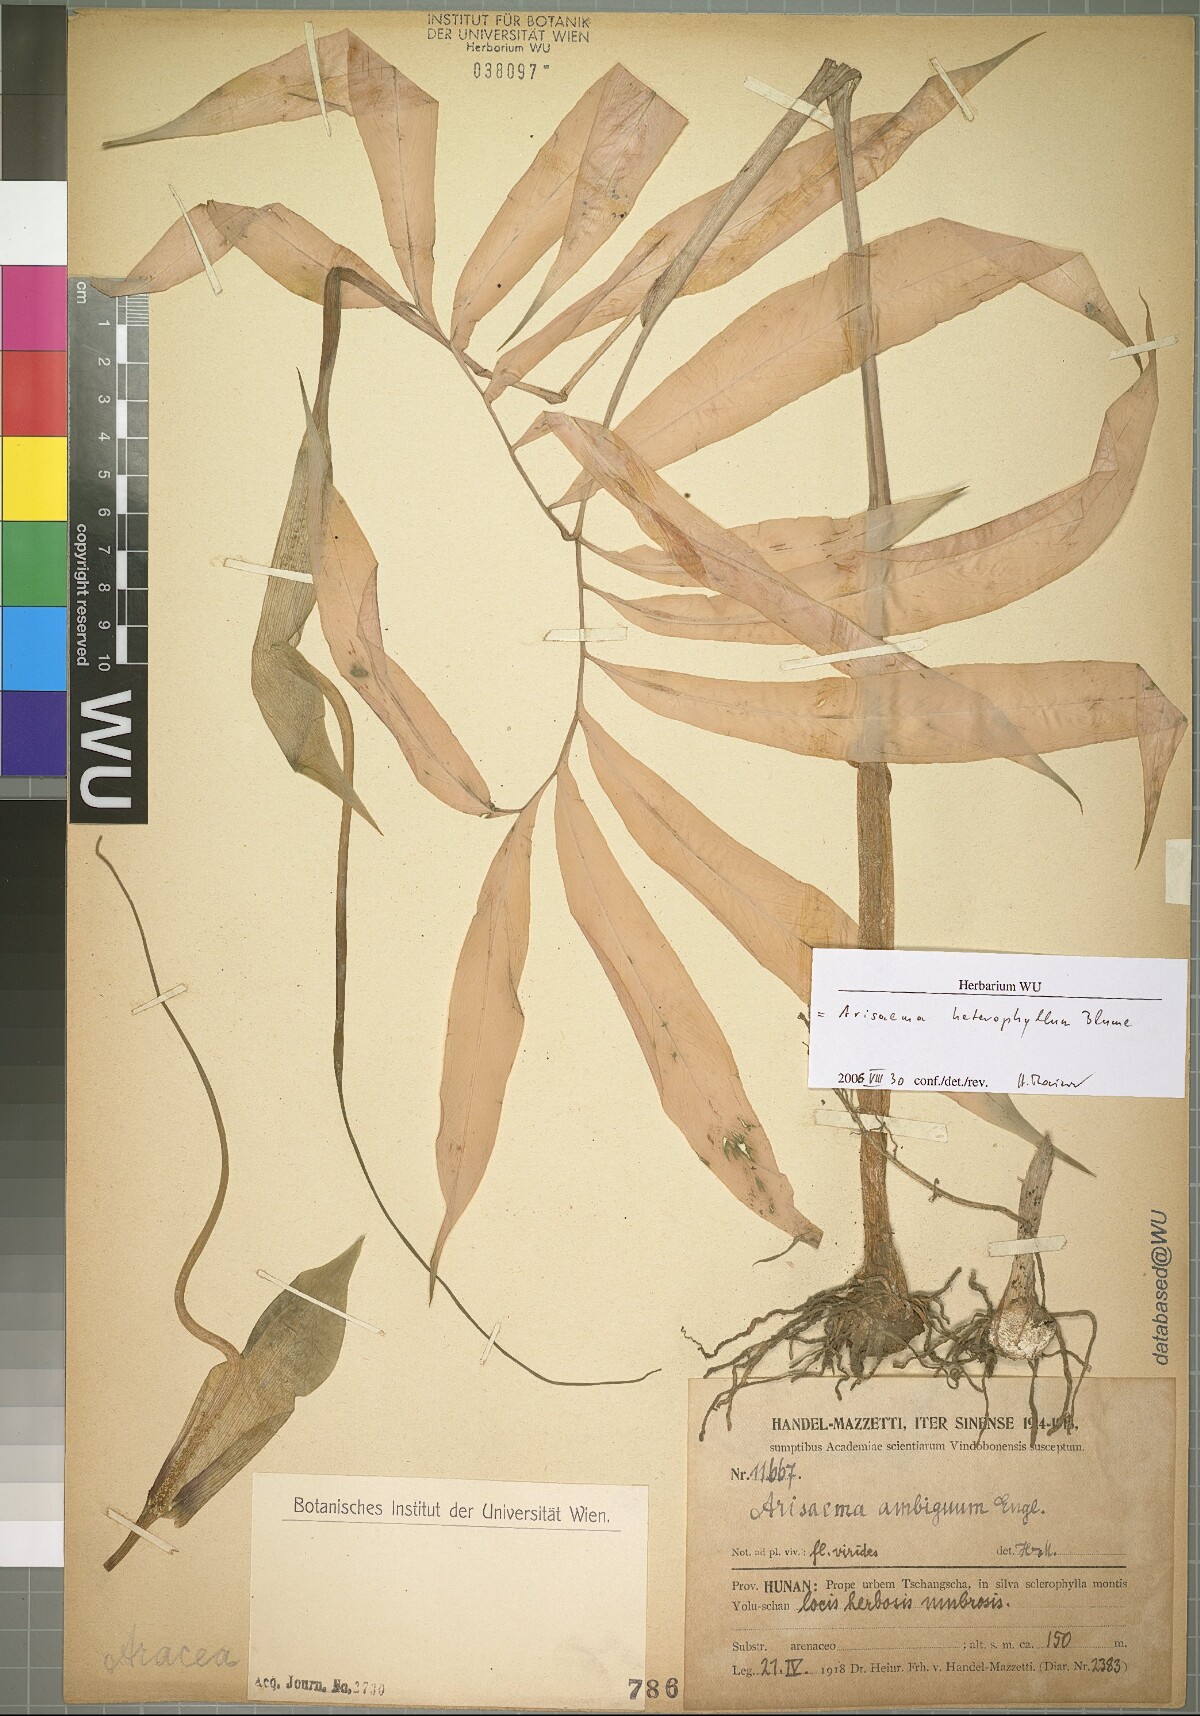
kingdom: Plantae
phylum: Tracheophyta
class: Liliopsida
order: Alismatales
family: Araceae
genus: Arisaema
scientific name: Arisaema heterophyllum
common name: Dancing crane cobra lily
